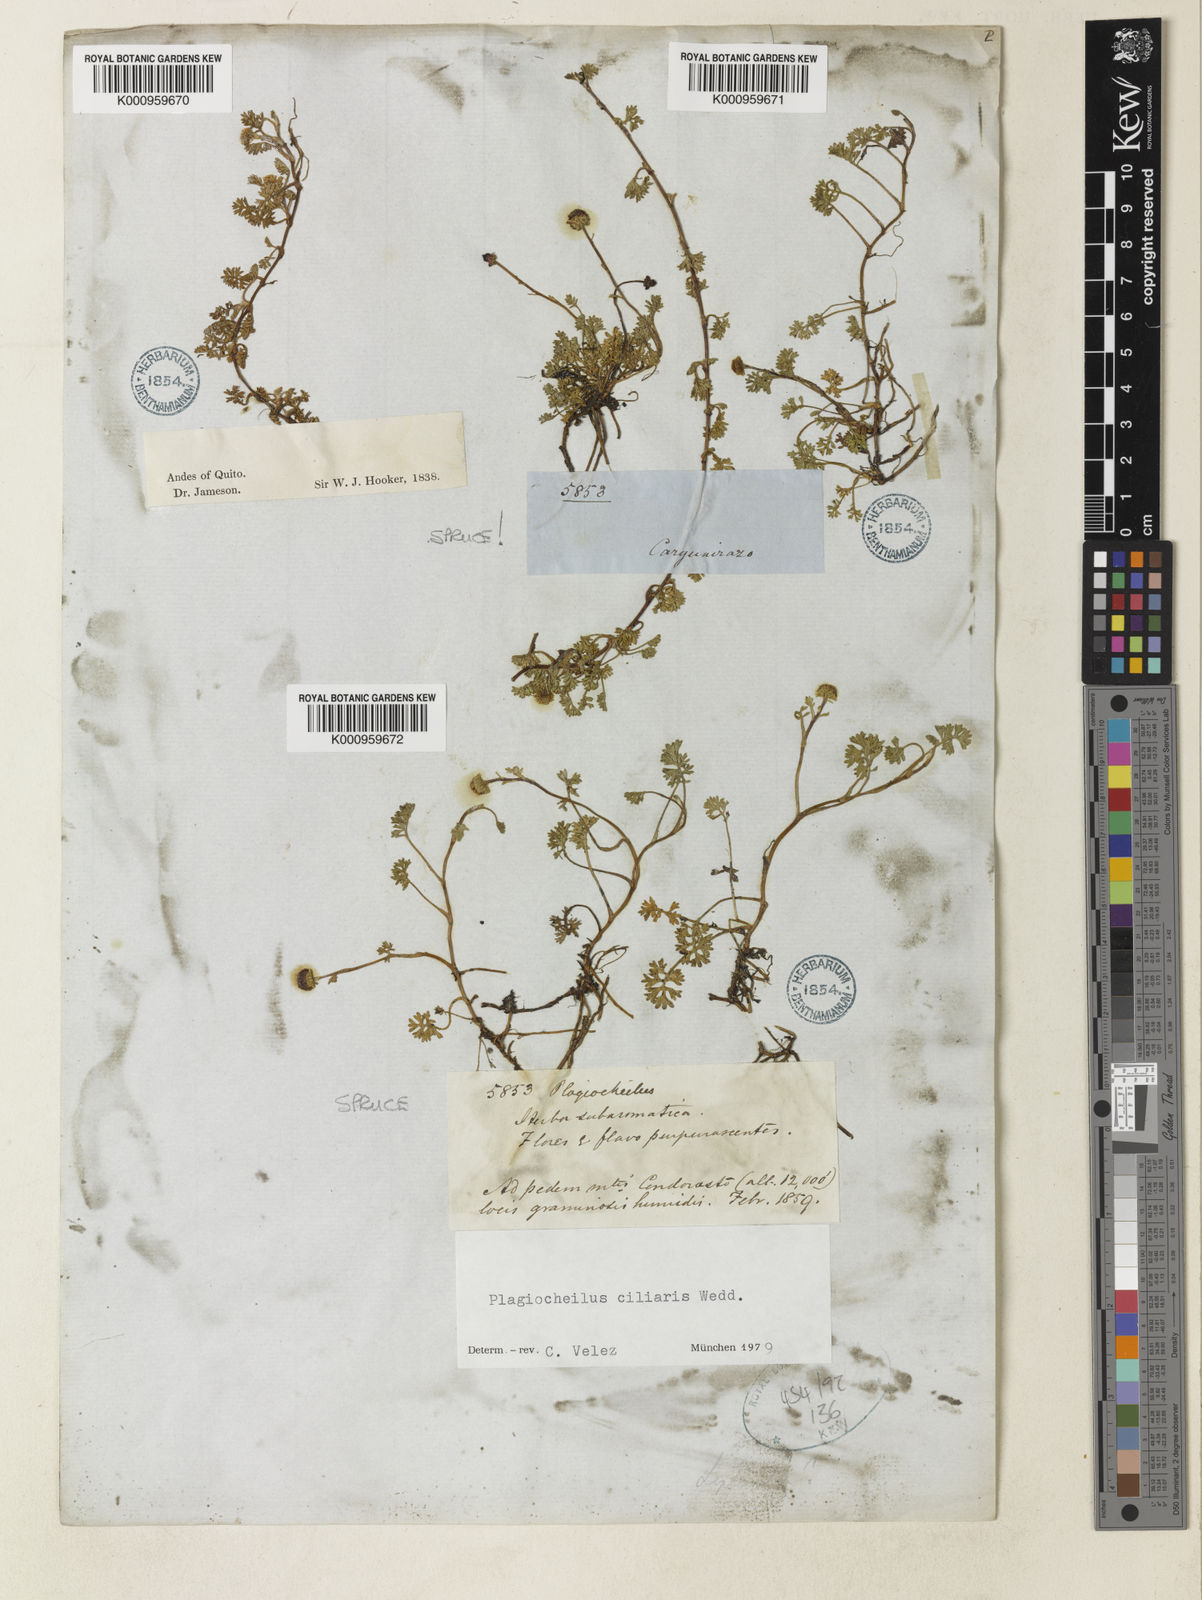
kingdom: Plantae
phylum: Tracheophyta
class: Magnoliopsida
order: Asterales
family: Asteraceae
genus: Plagiocheilus
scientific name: Plagiocheilus
